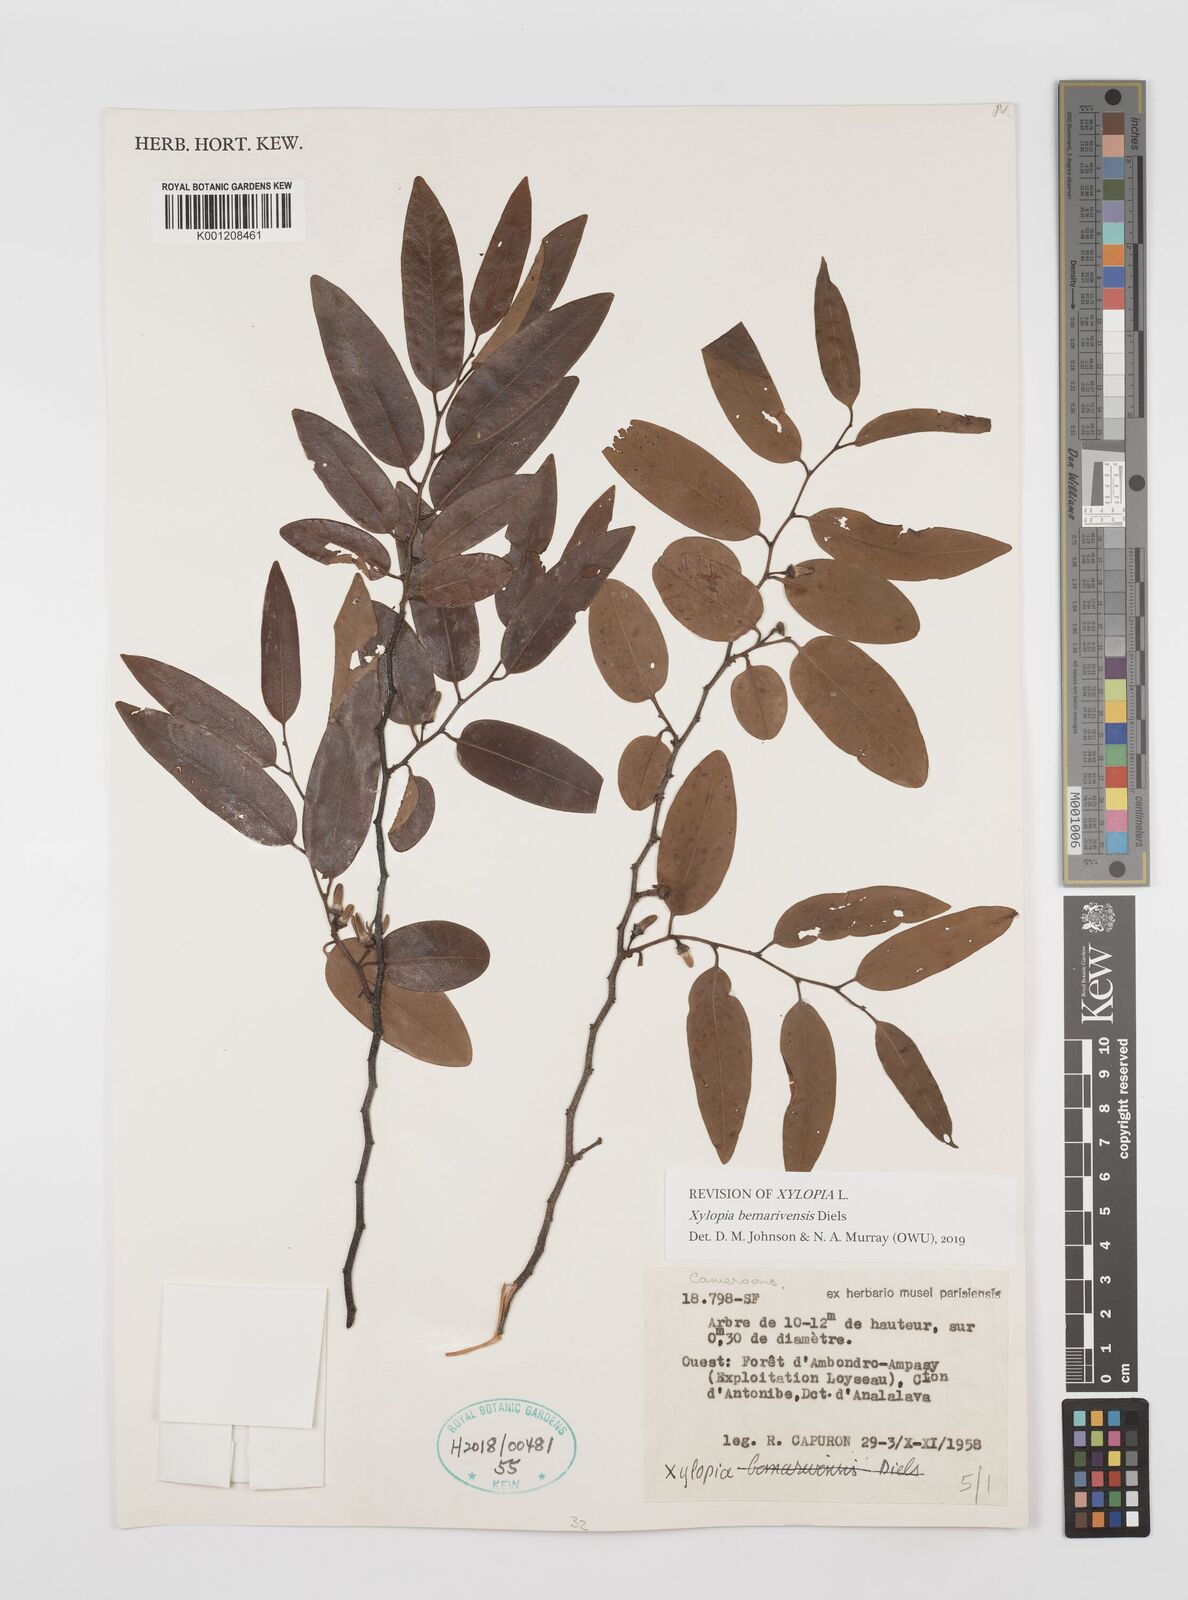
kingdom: Plantae
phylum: Tracheophyta
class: Magnoliopsida
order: Magnoliales
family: Annonaceae
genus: Xylopia
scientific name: Xylopia bemarivensis
